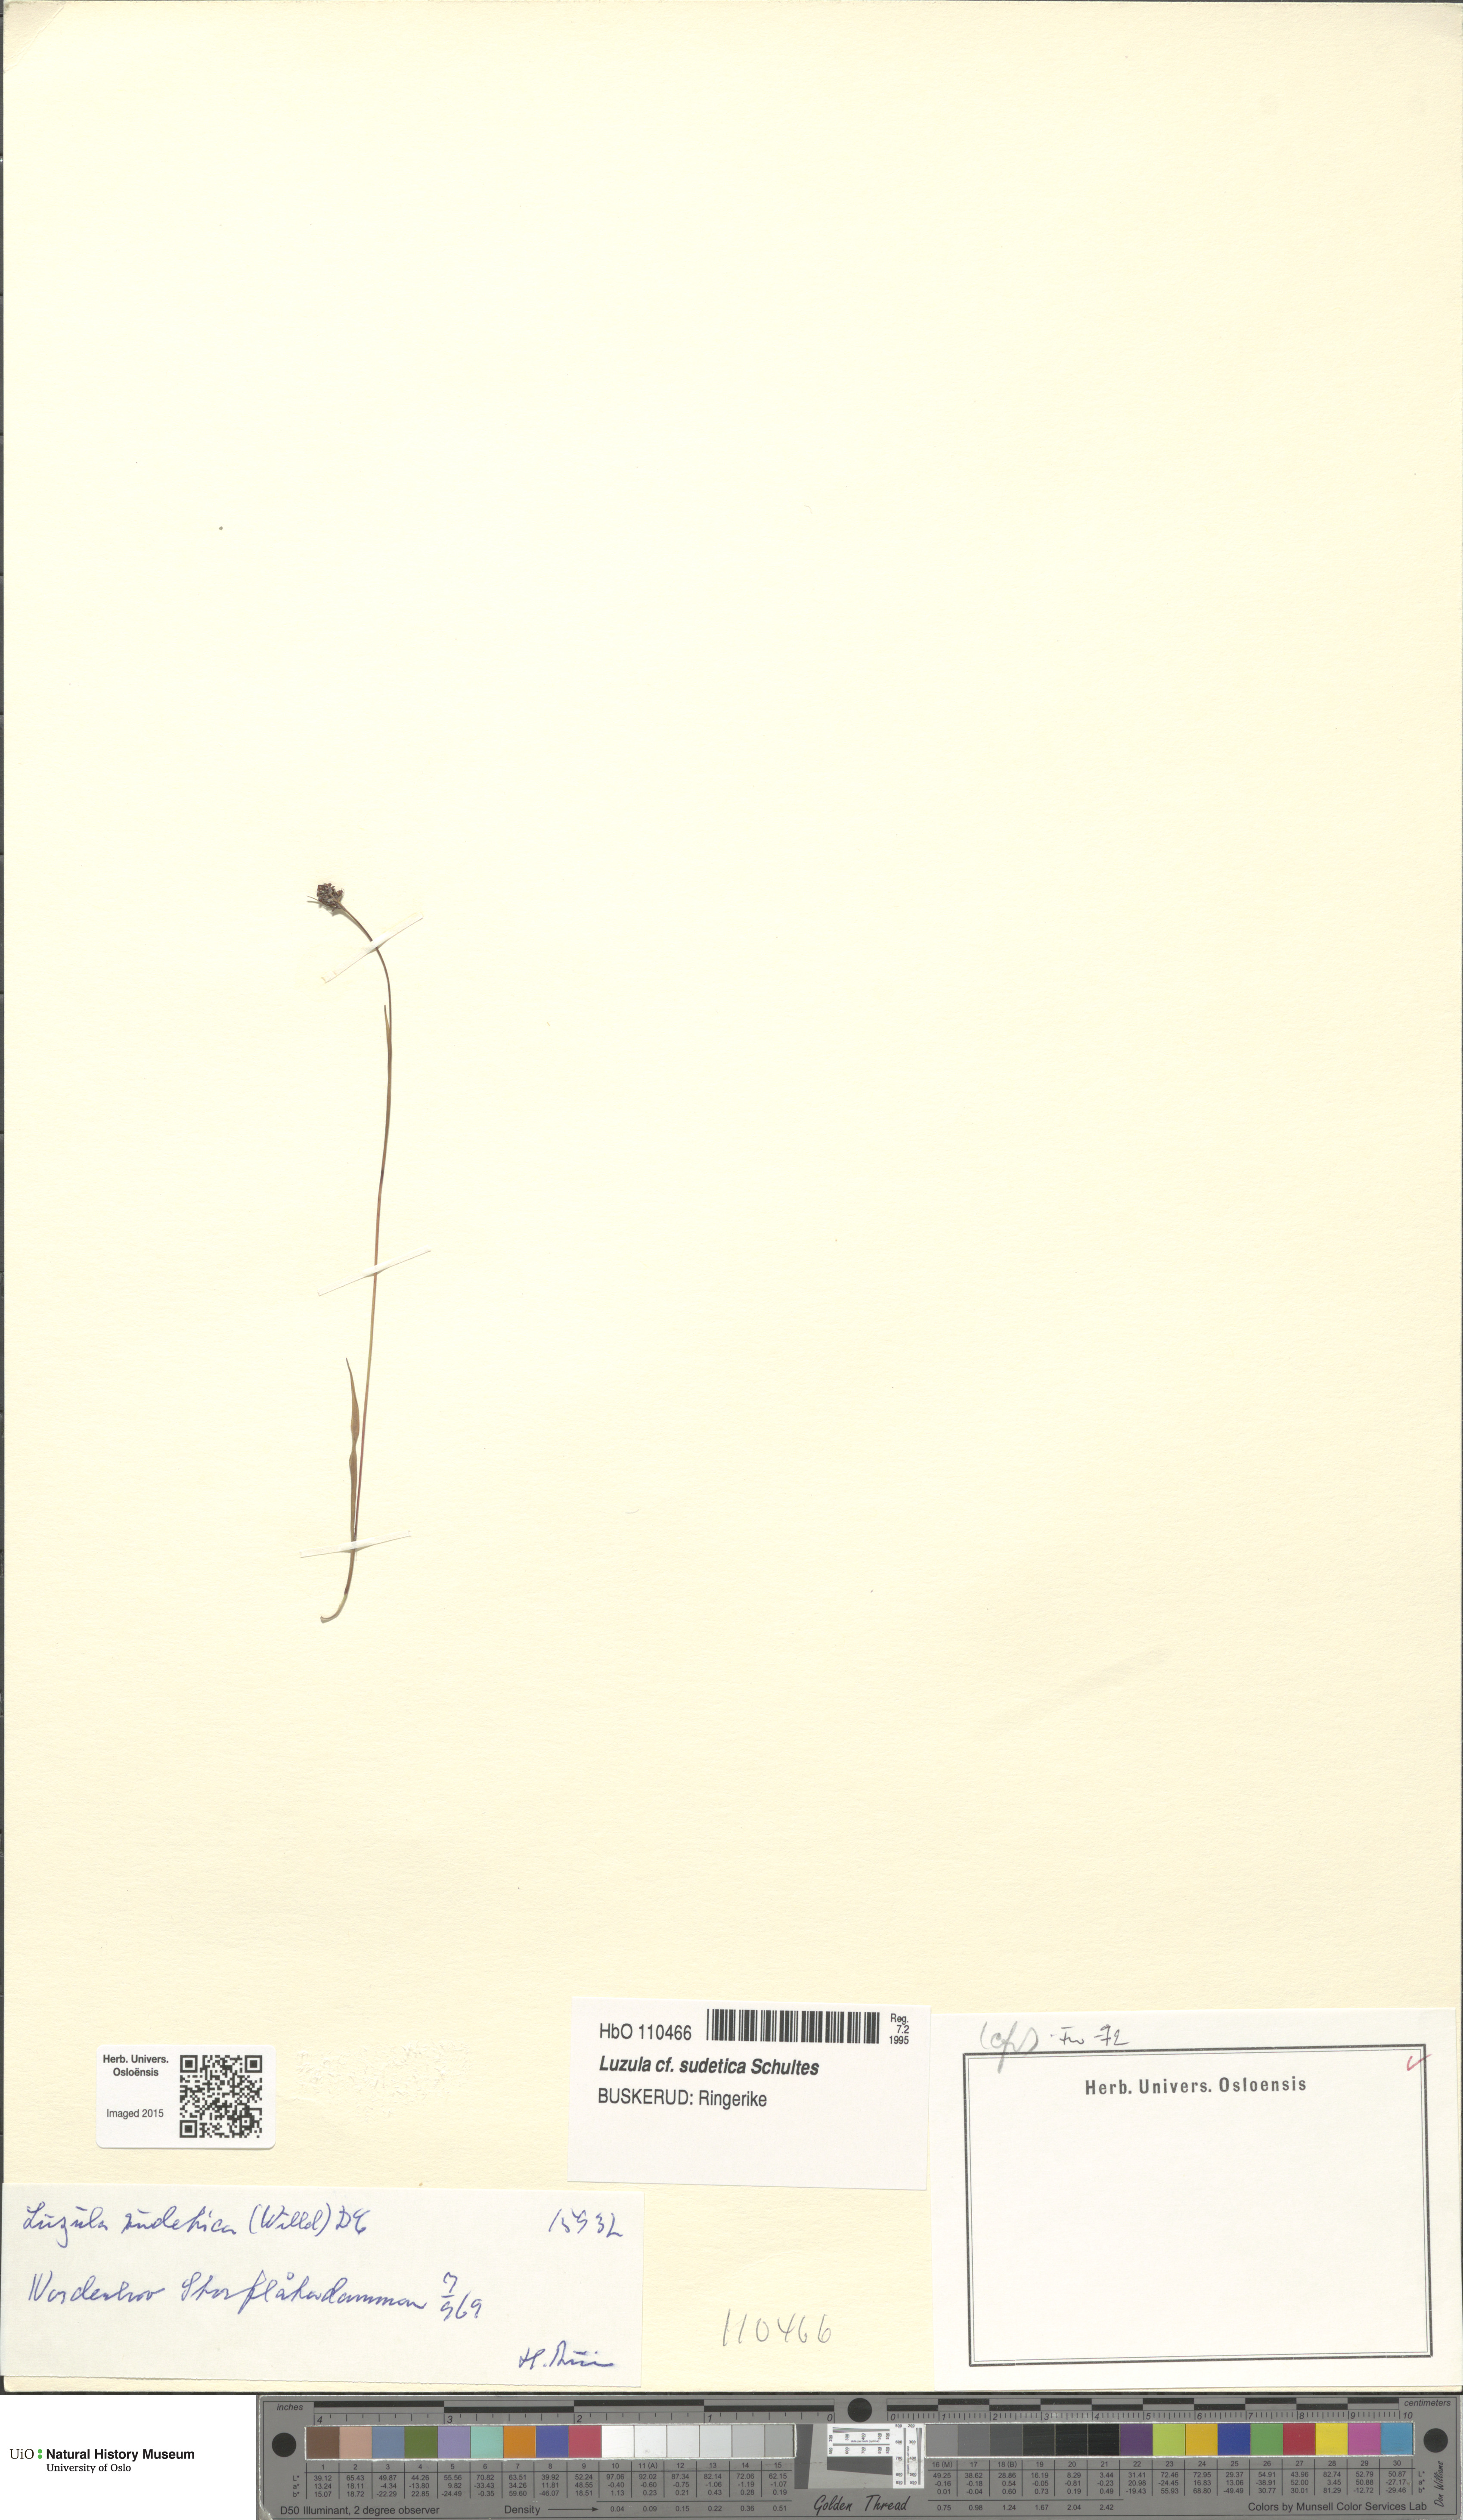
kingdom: Plantae
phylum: Tracheophyta
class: Liliopsida
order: Poales
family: Juncaceae
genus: Luzula
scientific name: Luzula sudetica
